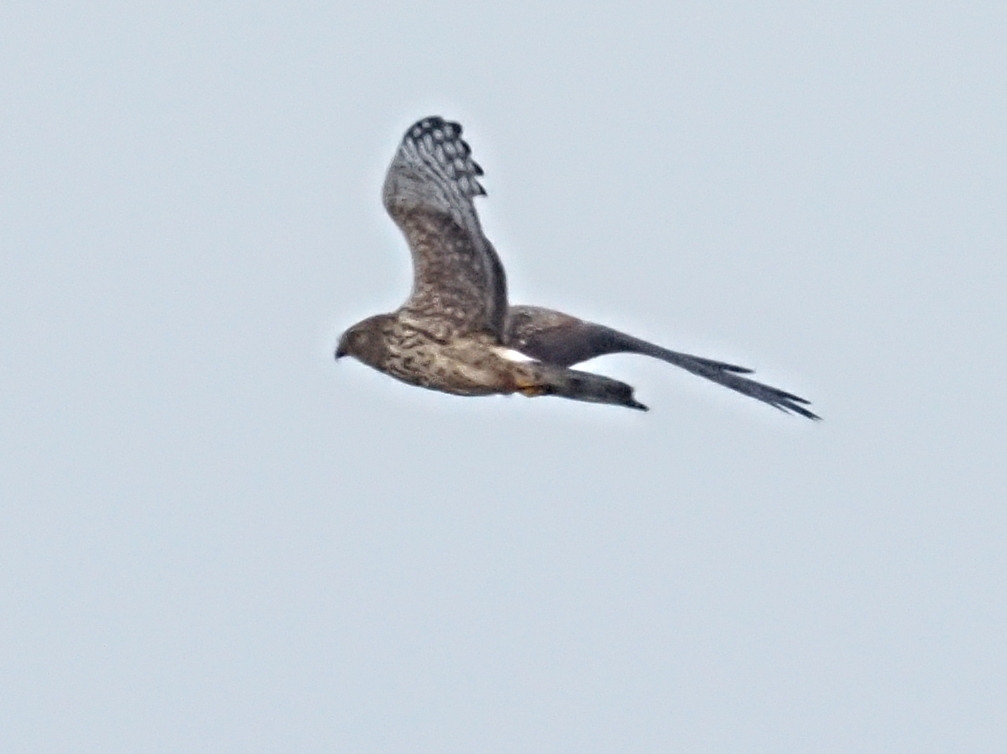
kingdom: Animalia
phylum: Chordata
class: Aves
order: Accipitriformes
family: Accipitridae
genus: Circus
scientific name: Circus cyaneus
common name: Blå kærhøg
